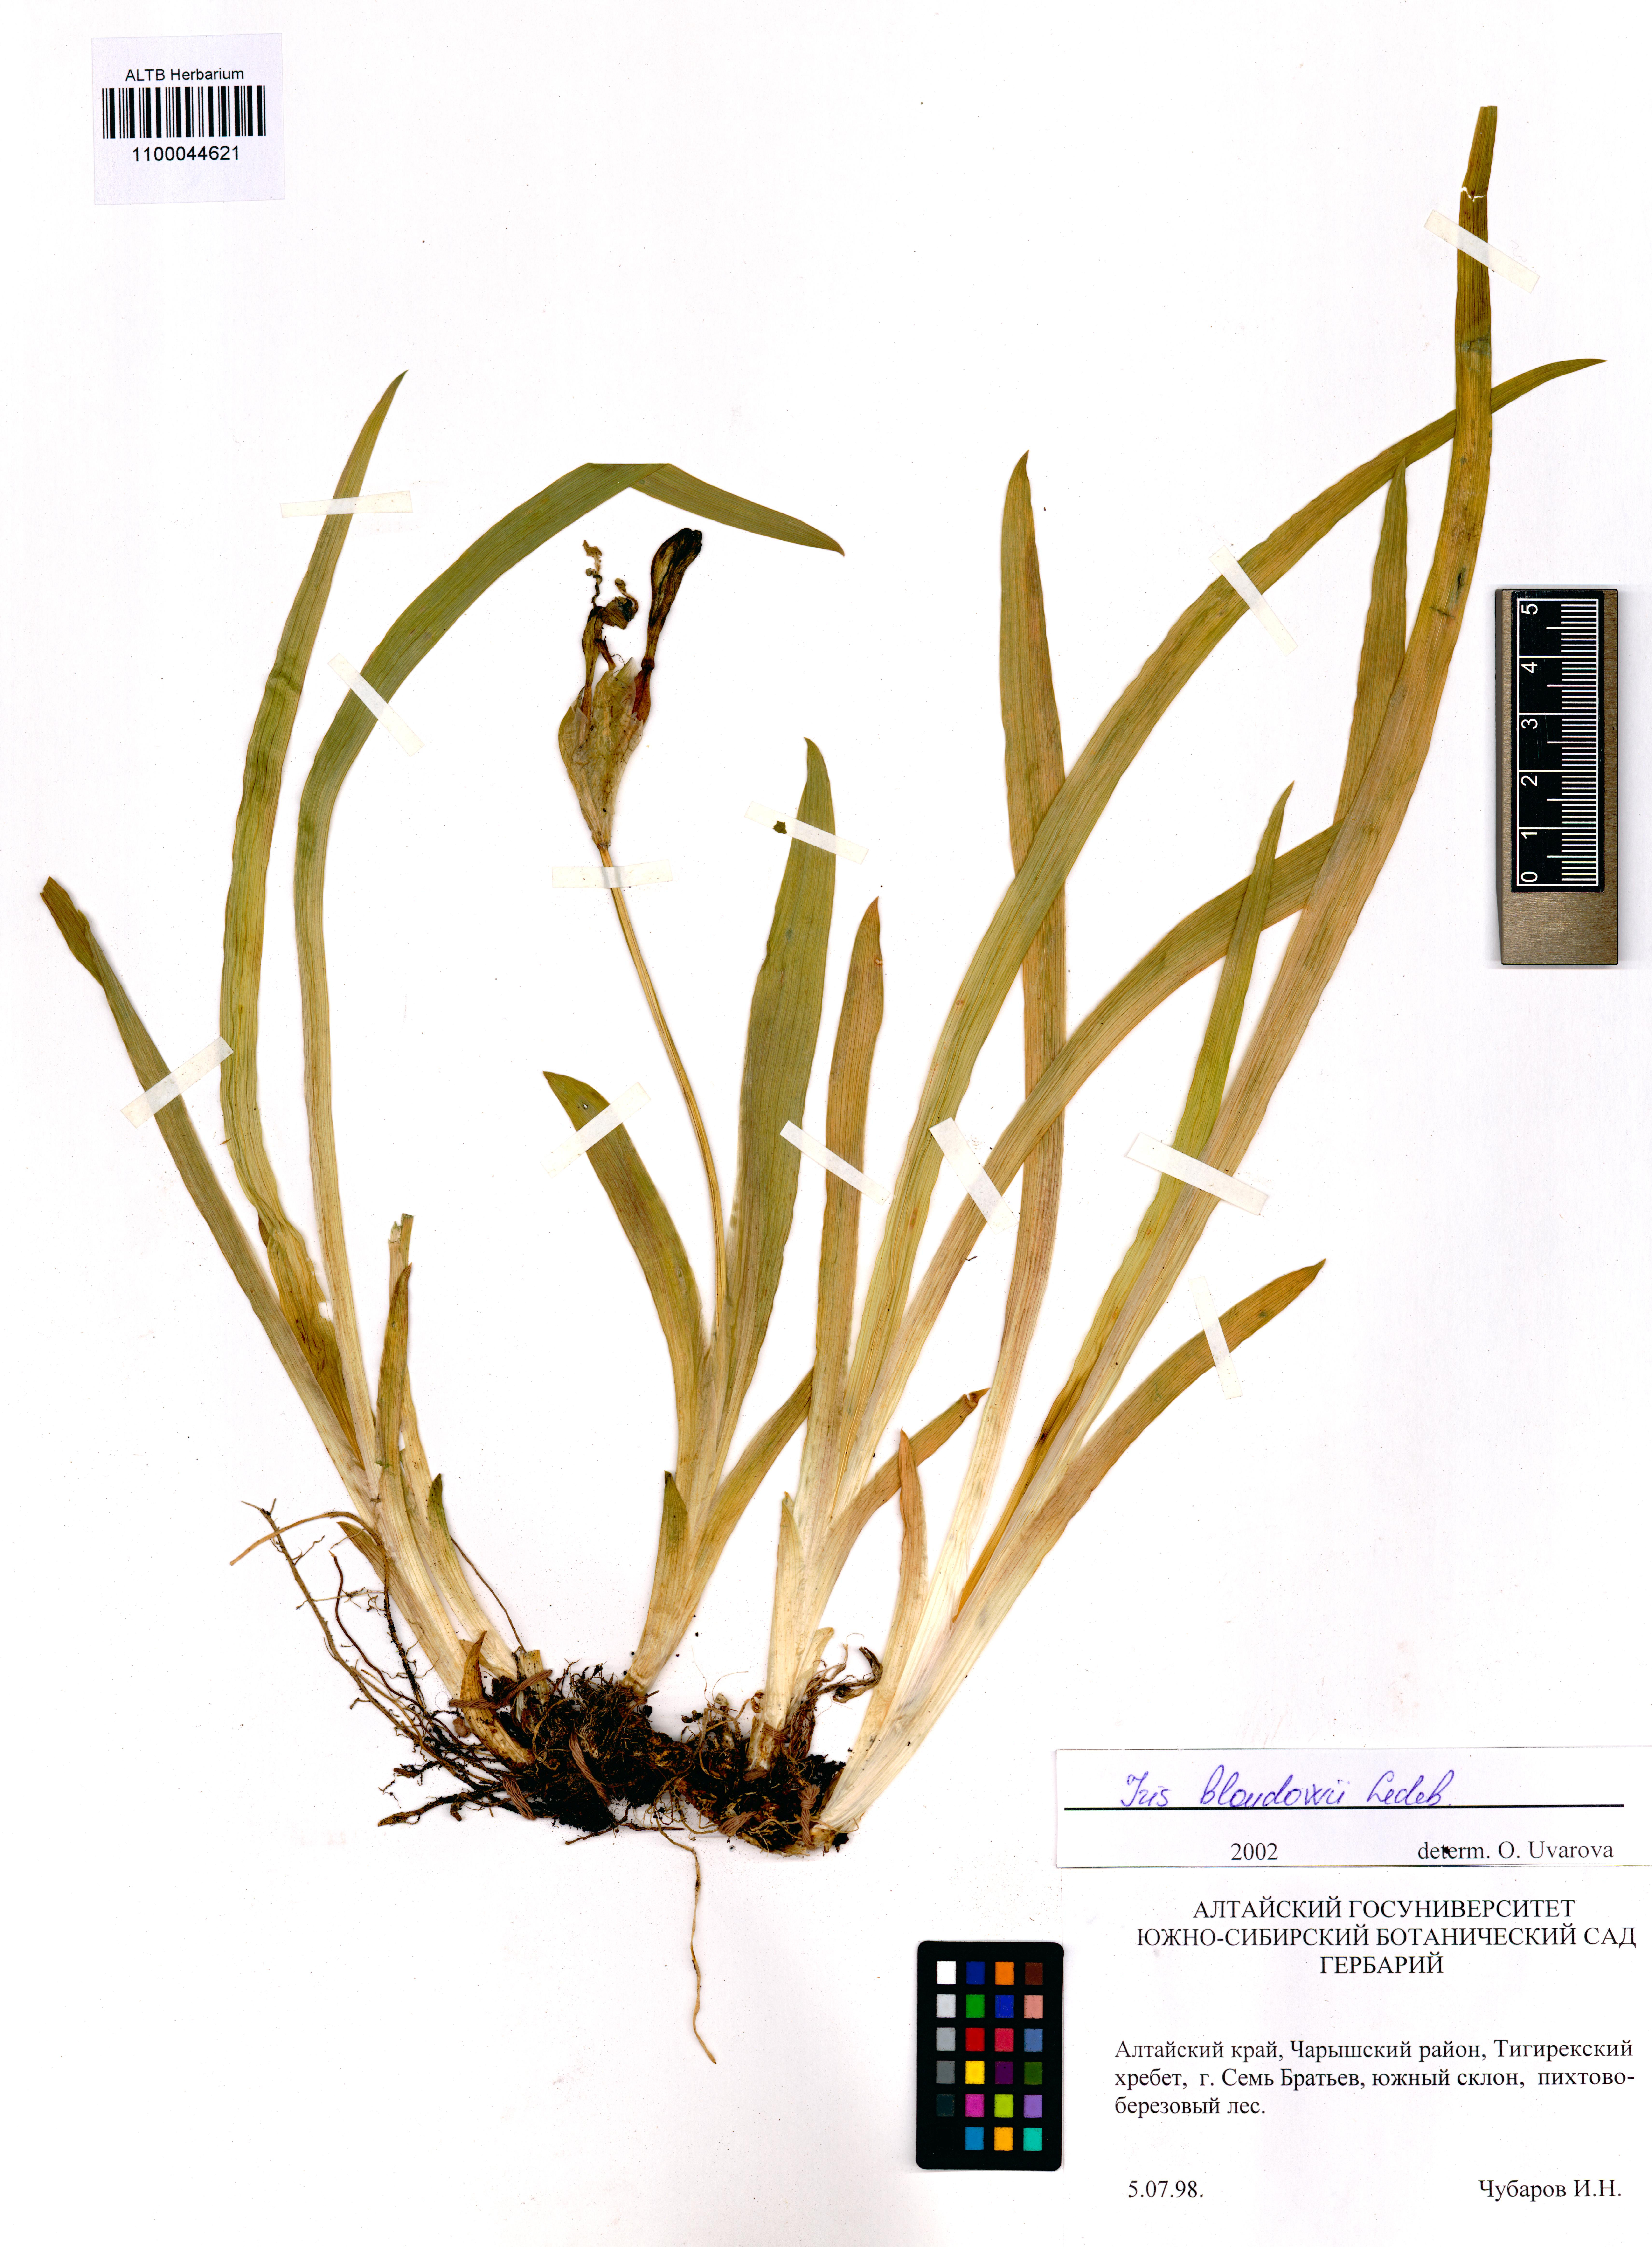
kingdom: Plantae
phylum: Tracheophyta
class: Liliopsida
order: Asparagales
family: Iridaceae
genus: Iris
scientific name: Iris bloudowii
